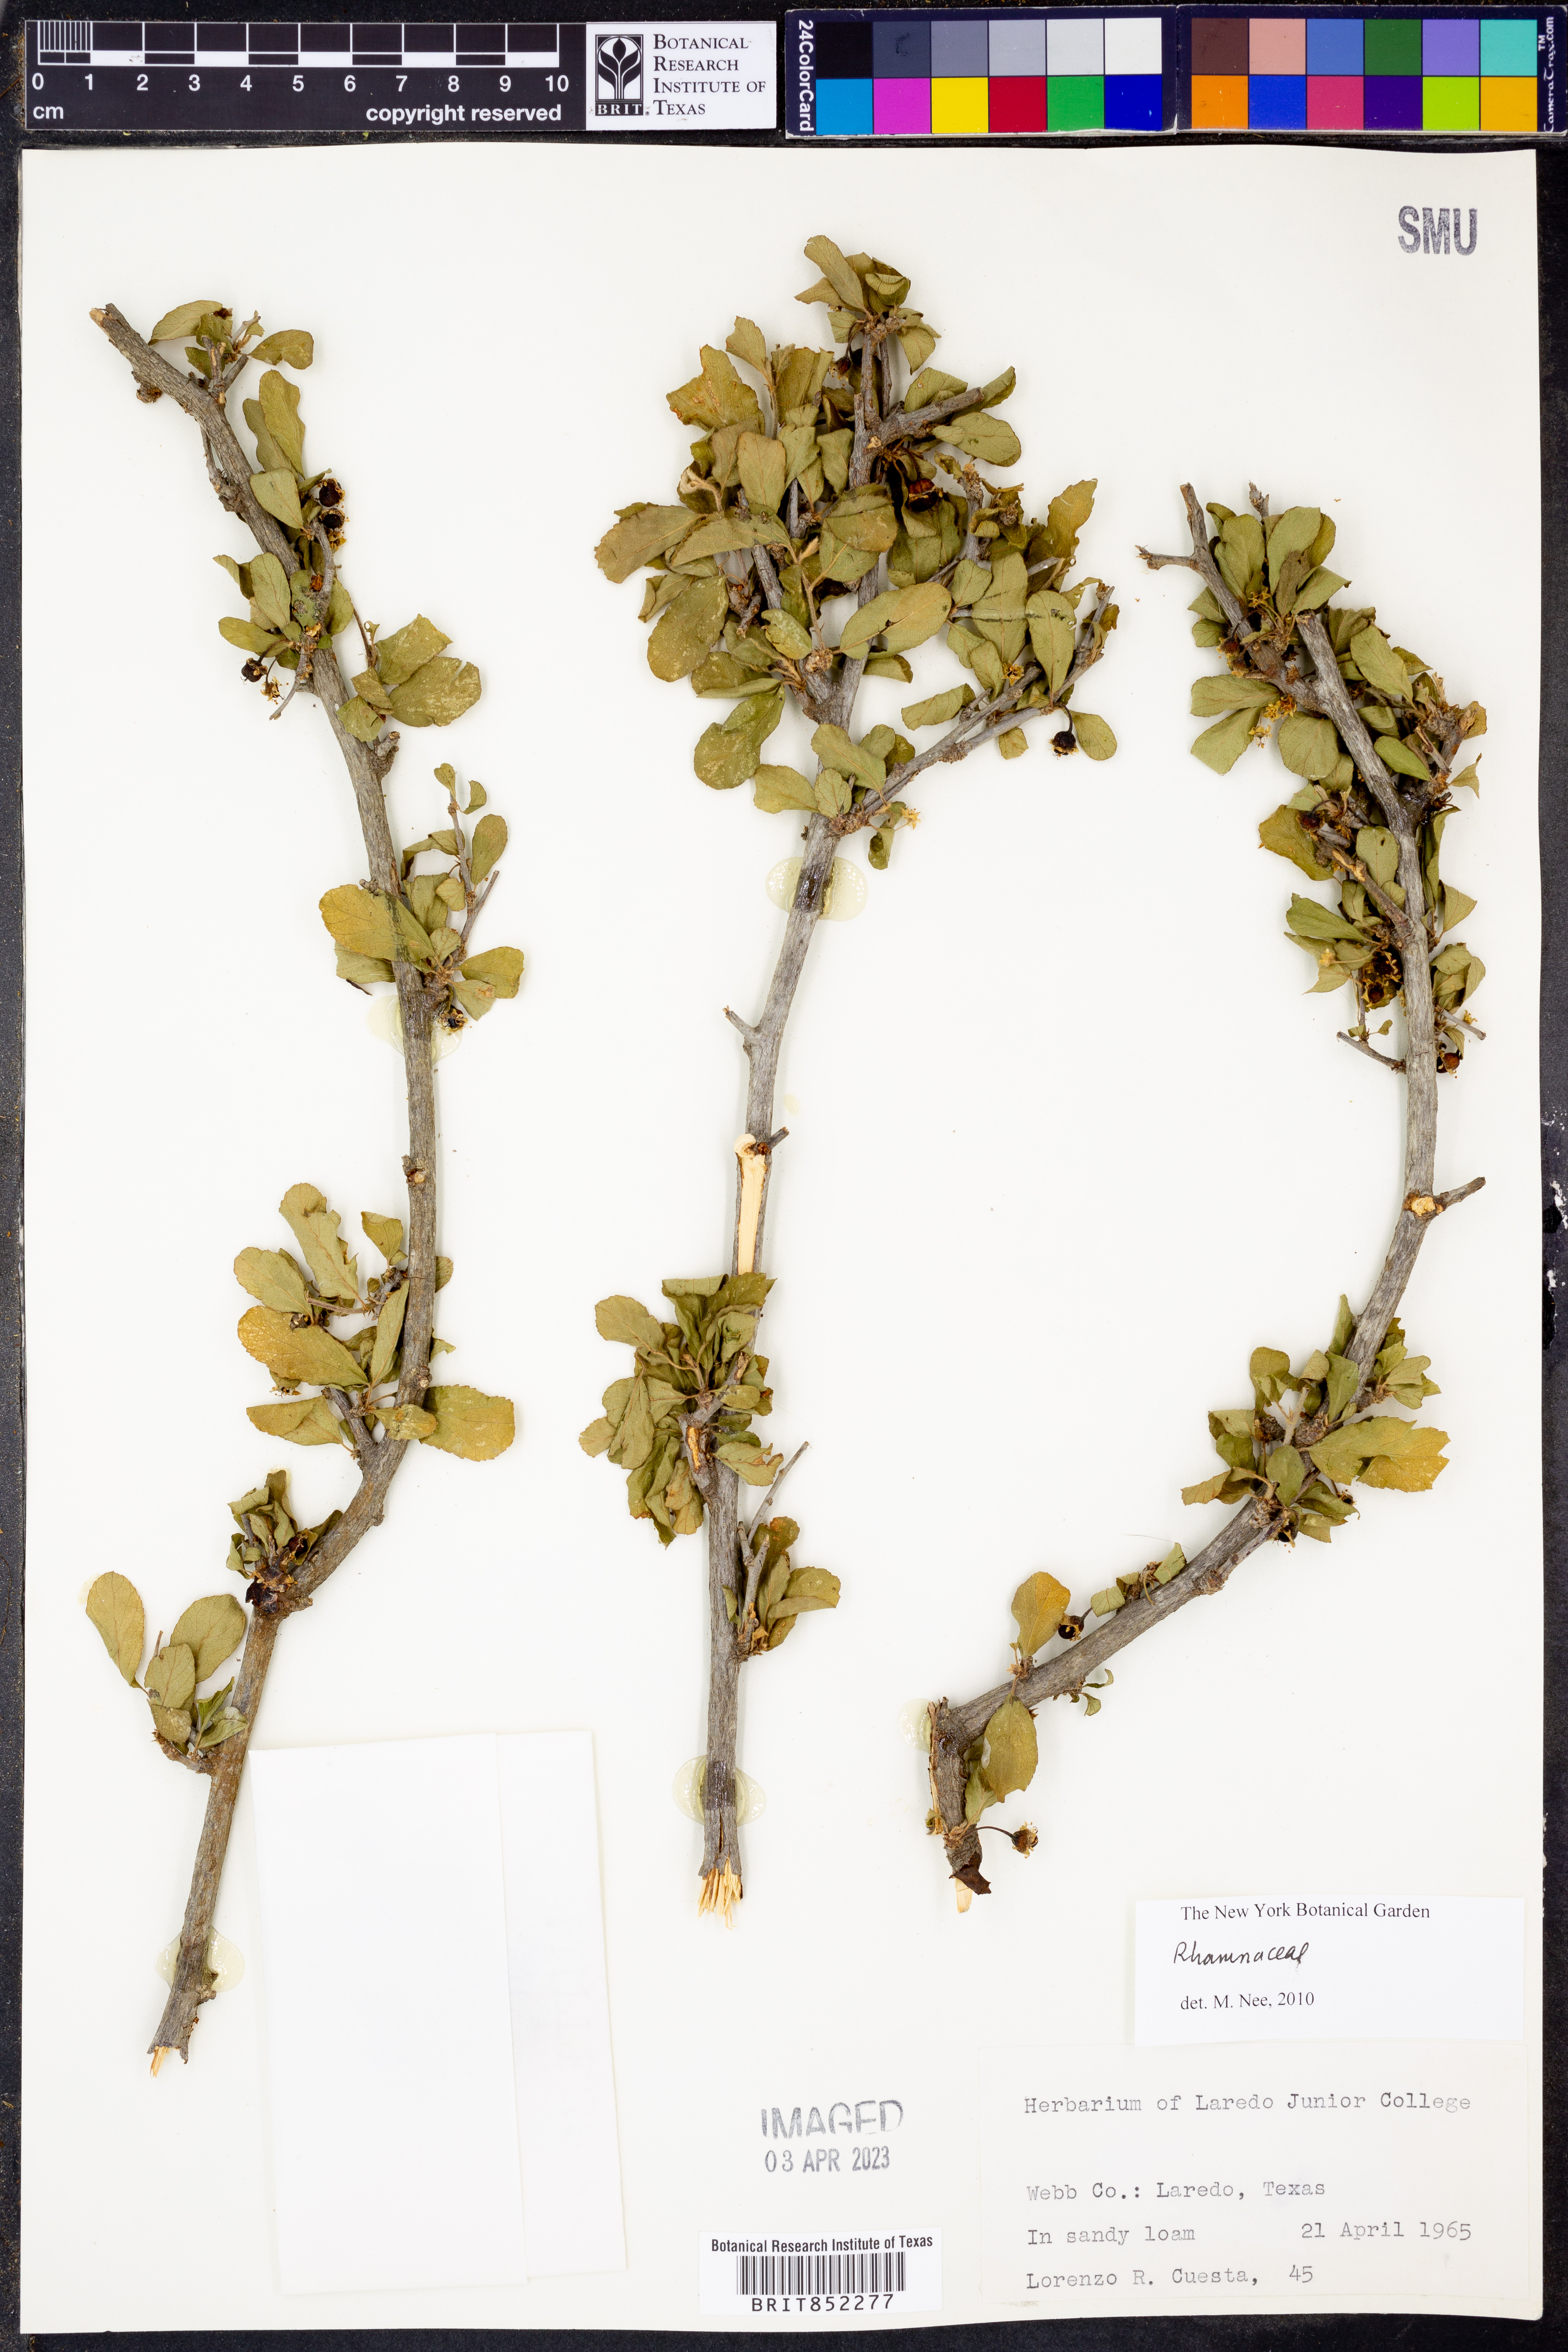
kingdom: Plantae
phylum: Tracheophyta
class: Magnoliopsida
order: Rosales
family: Rhamnaceae
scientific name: Rhamnaceae
